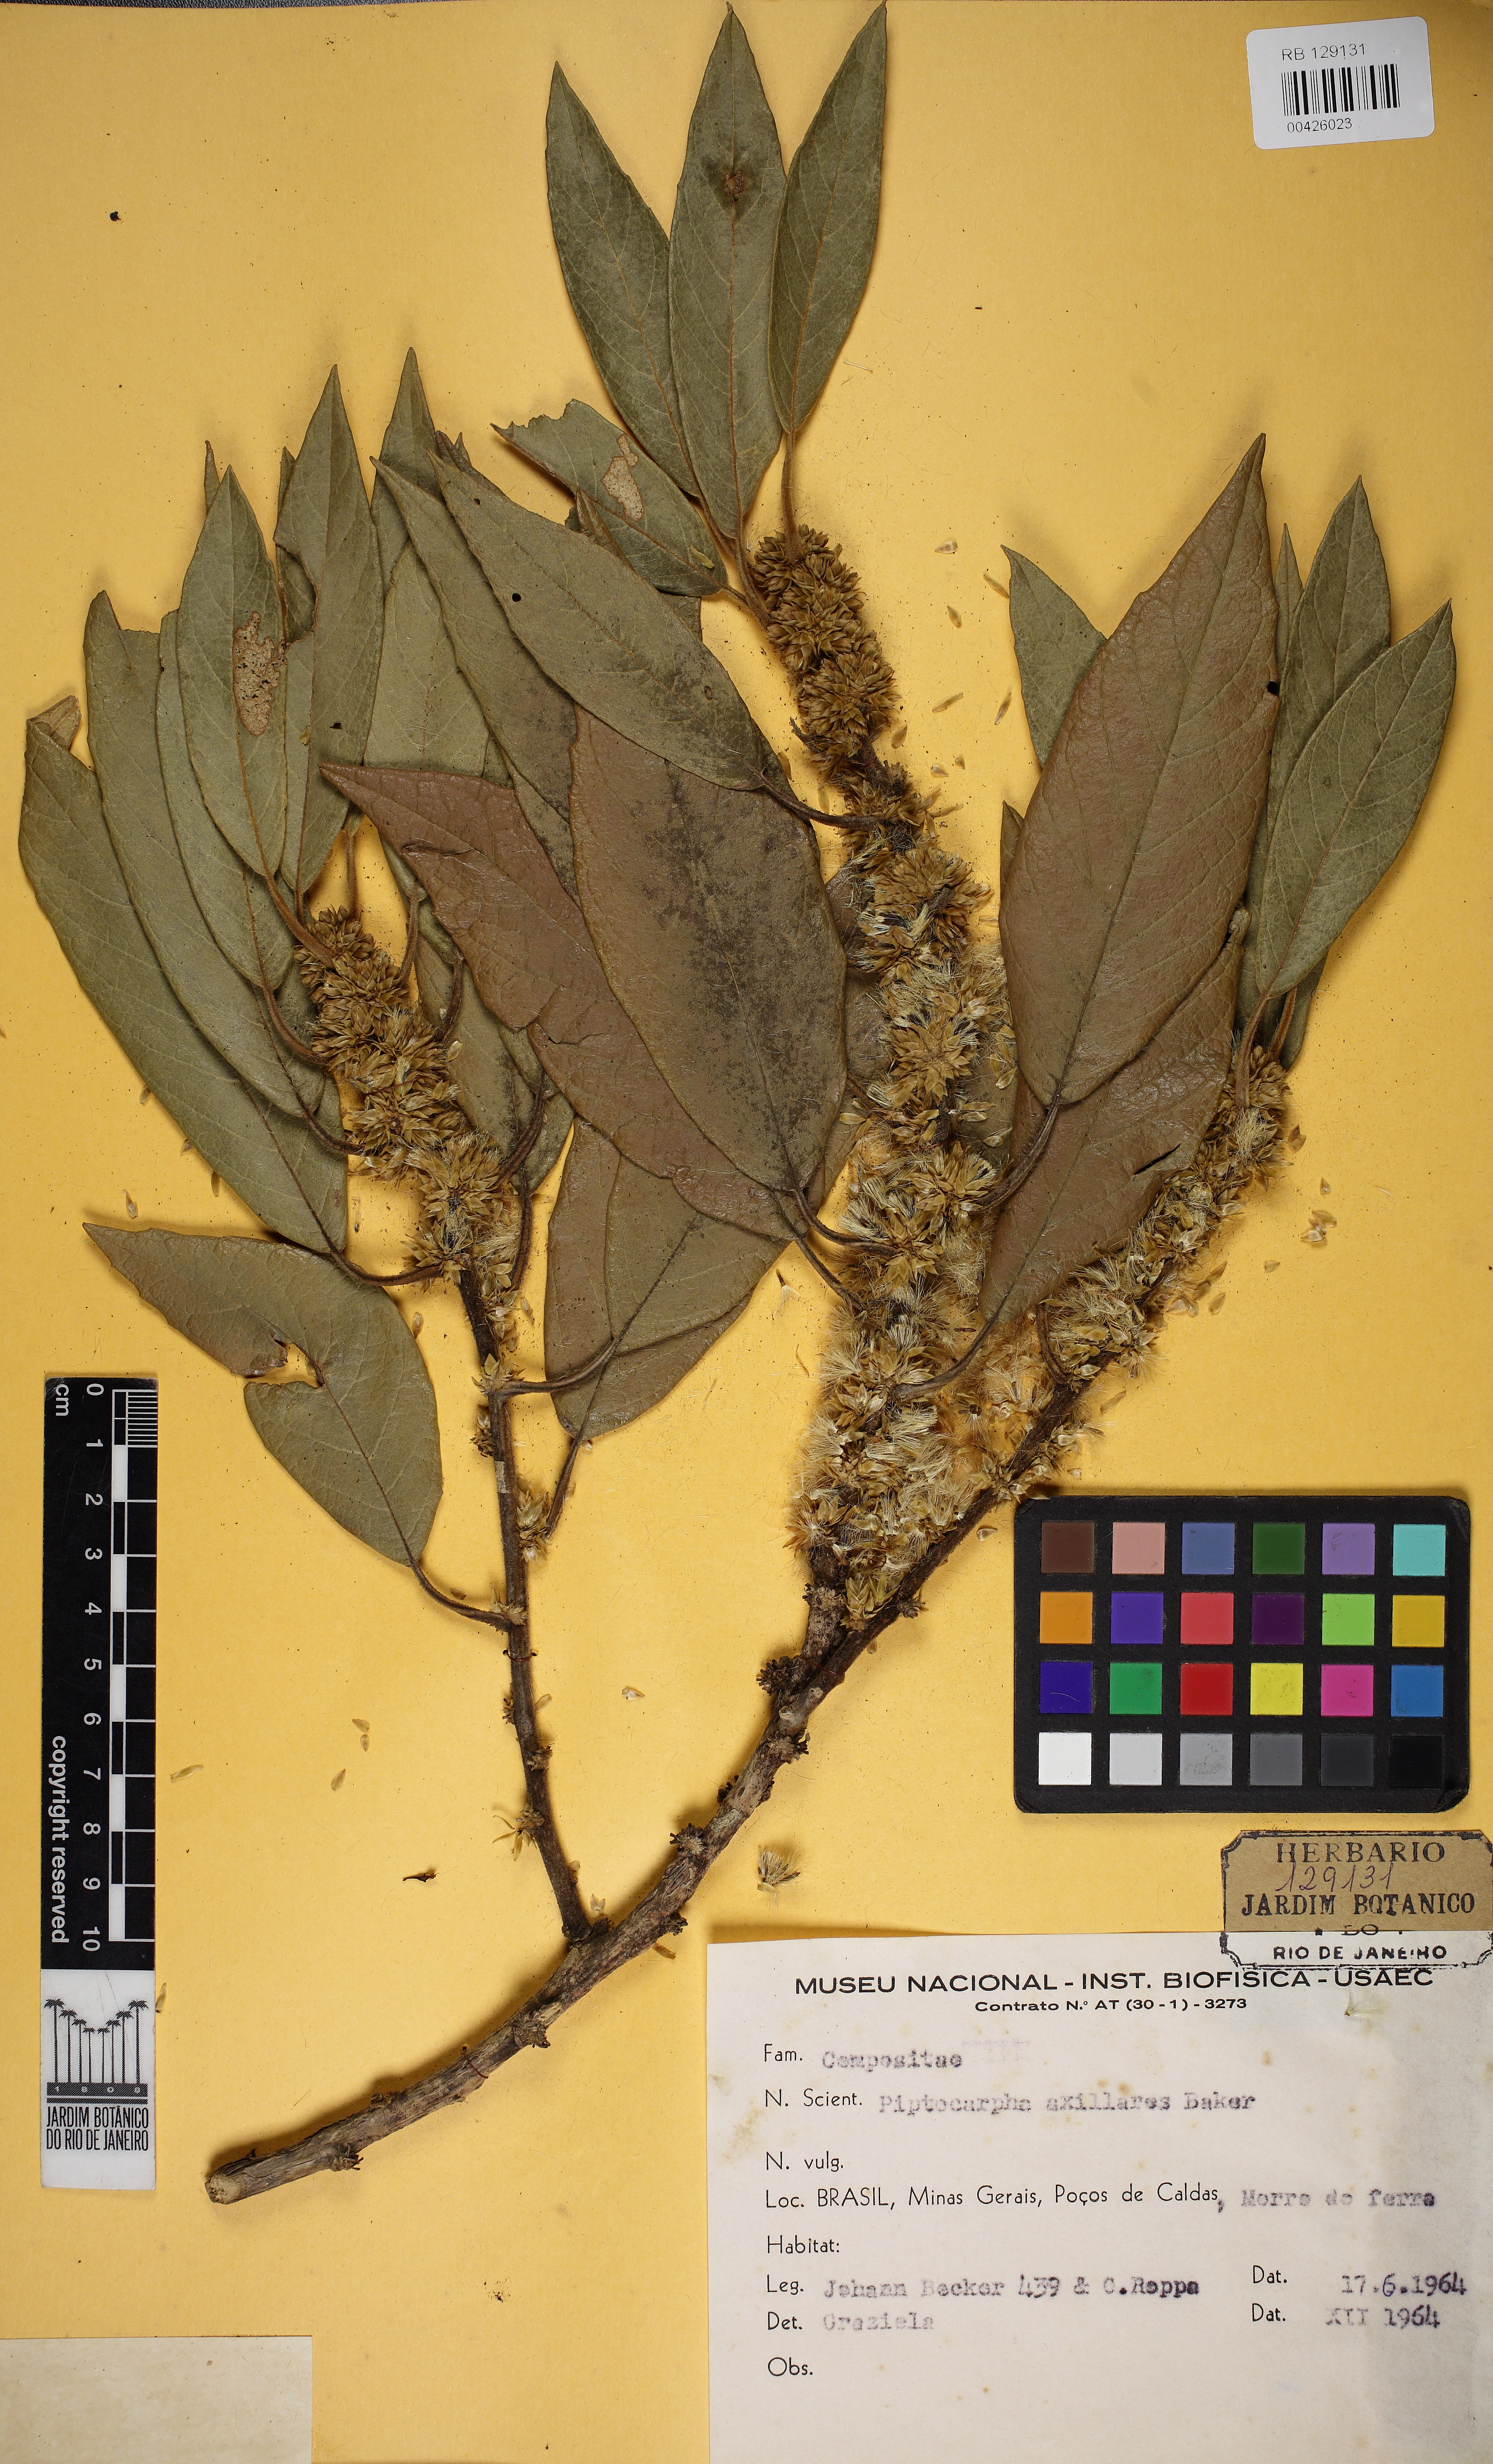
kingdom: Plantae
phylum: Tracheophyta
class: Magnoliopsida
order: Asterales
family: Asteraceae
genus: Piptocarpha
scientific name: Piptocarpha axillaris
